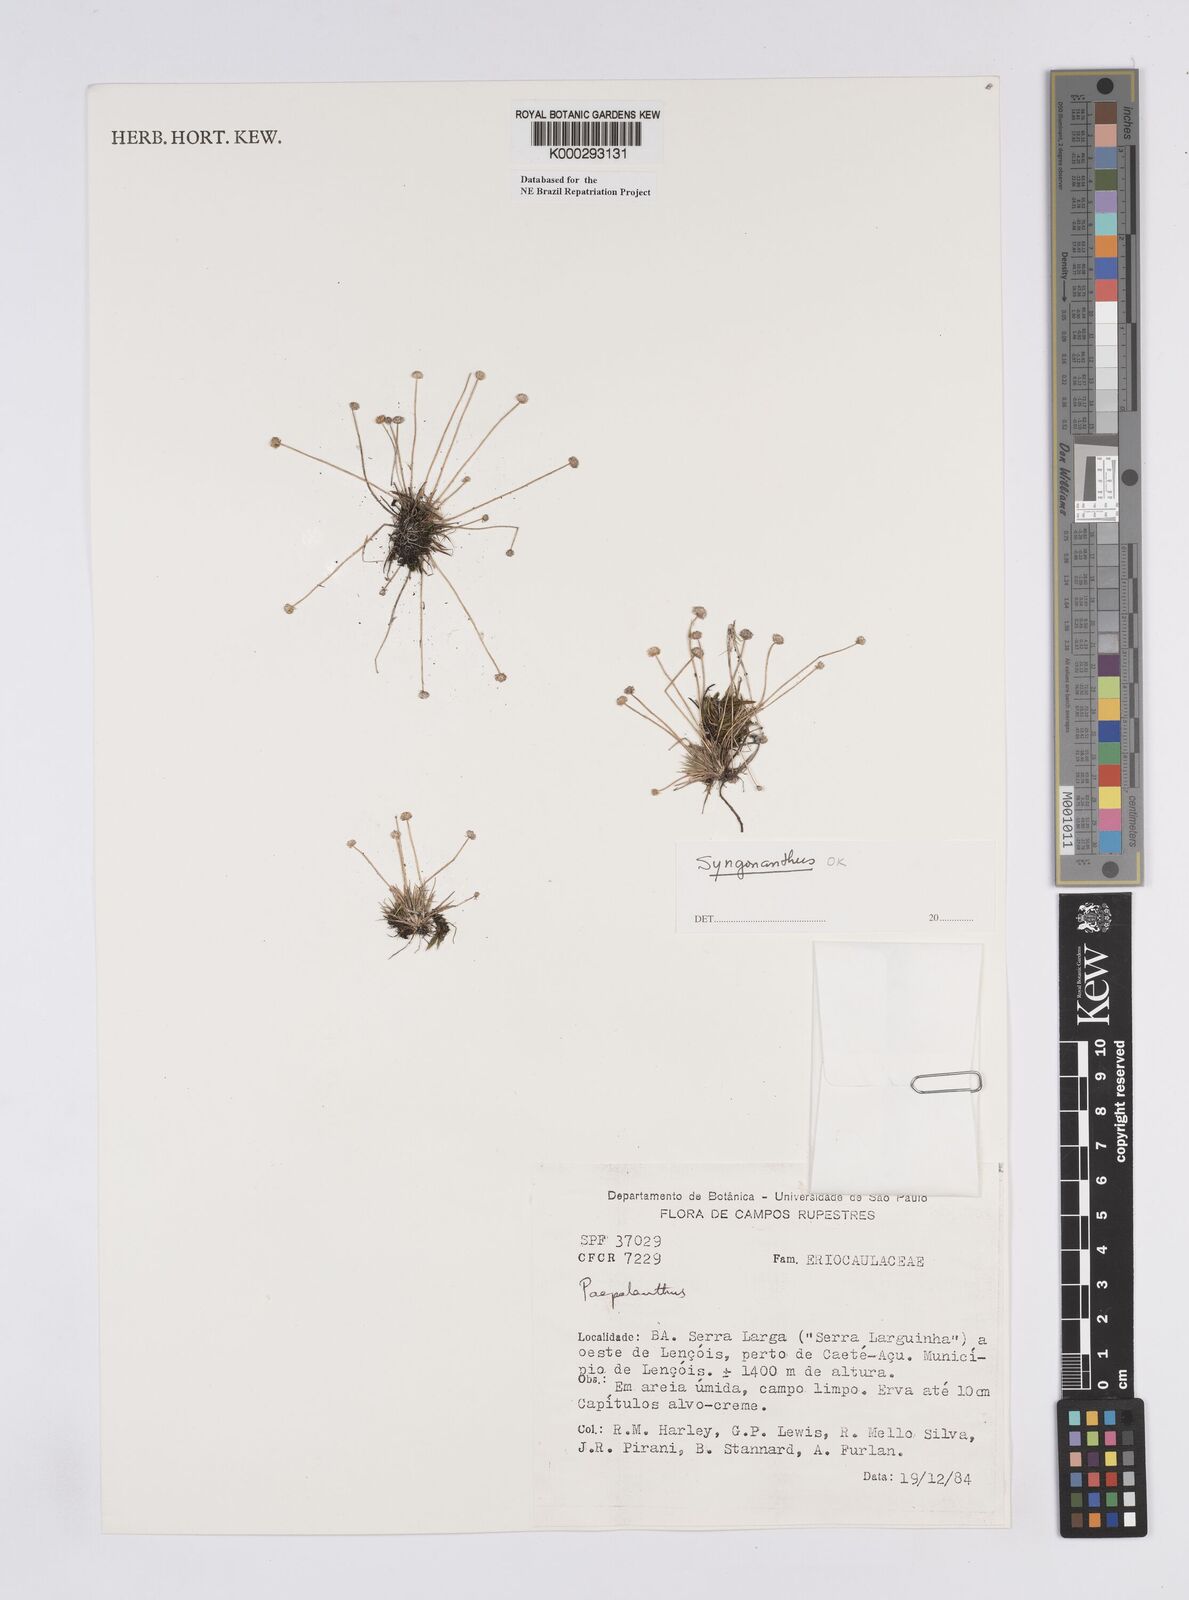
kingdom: Plantae
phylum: Tracheophyta
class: Liliopsida
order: Poales
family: Eriocaulaceae
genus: Syngonanthus
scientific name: Syngonanthus
